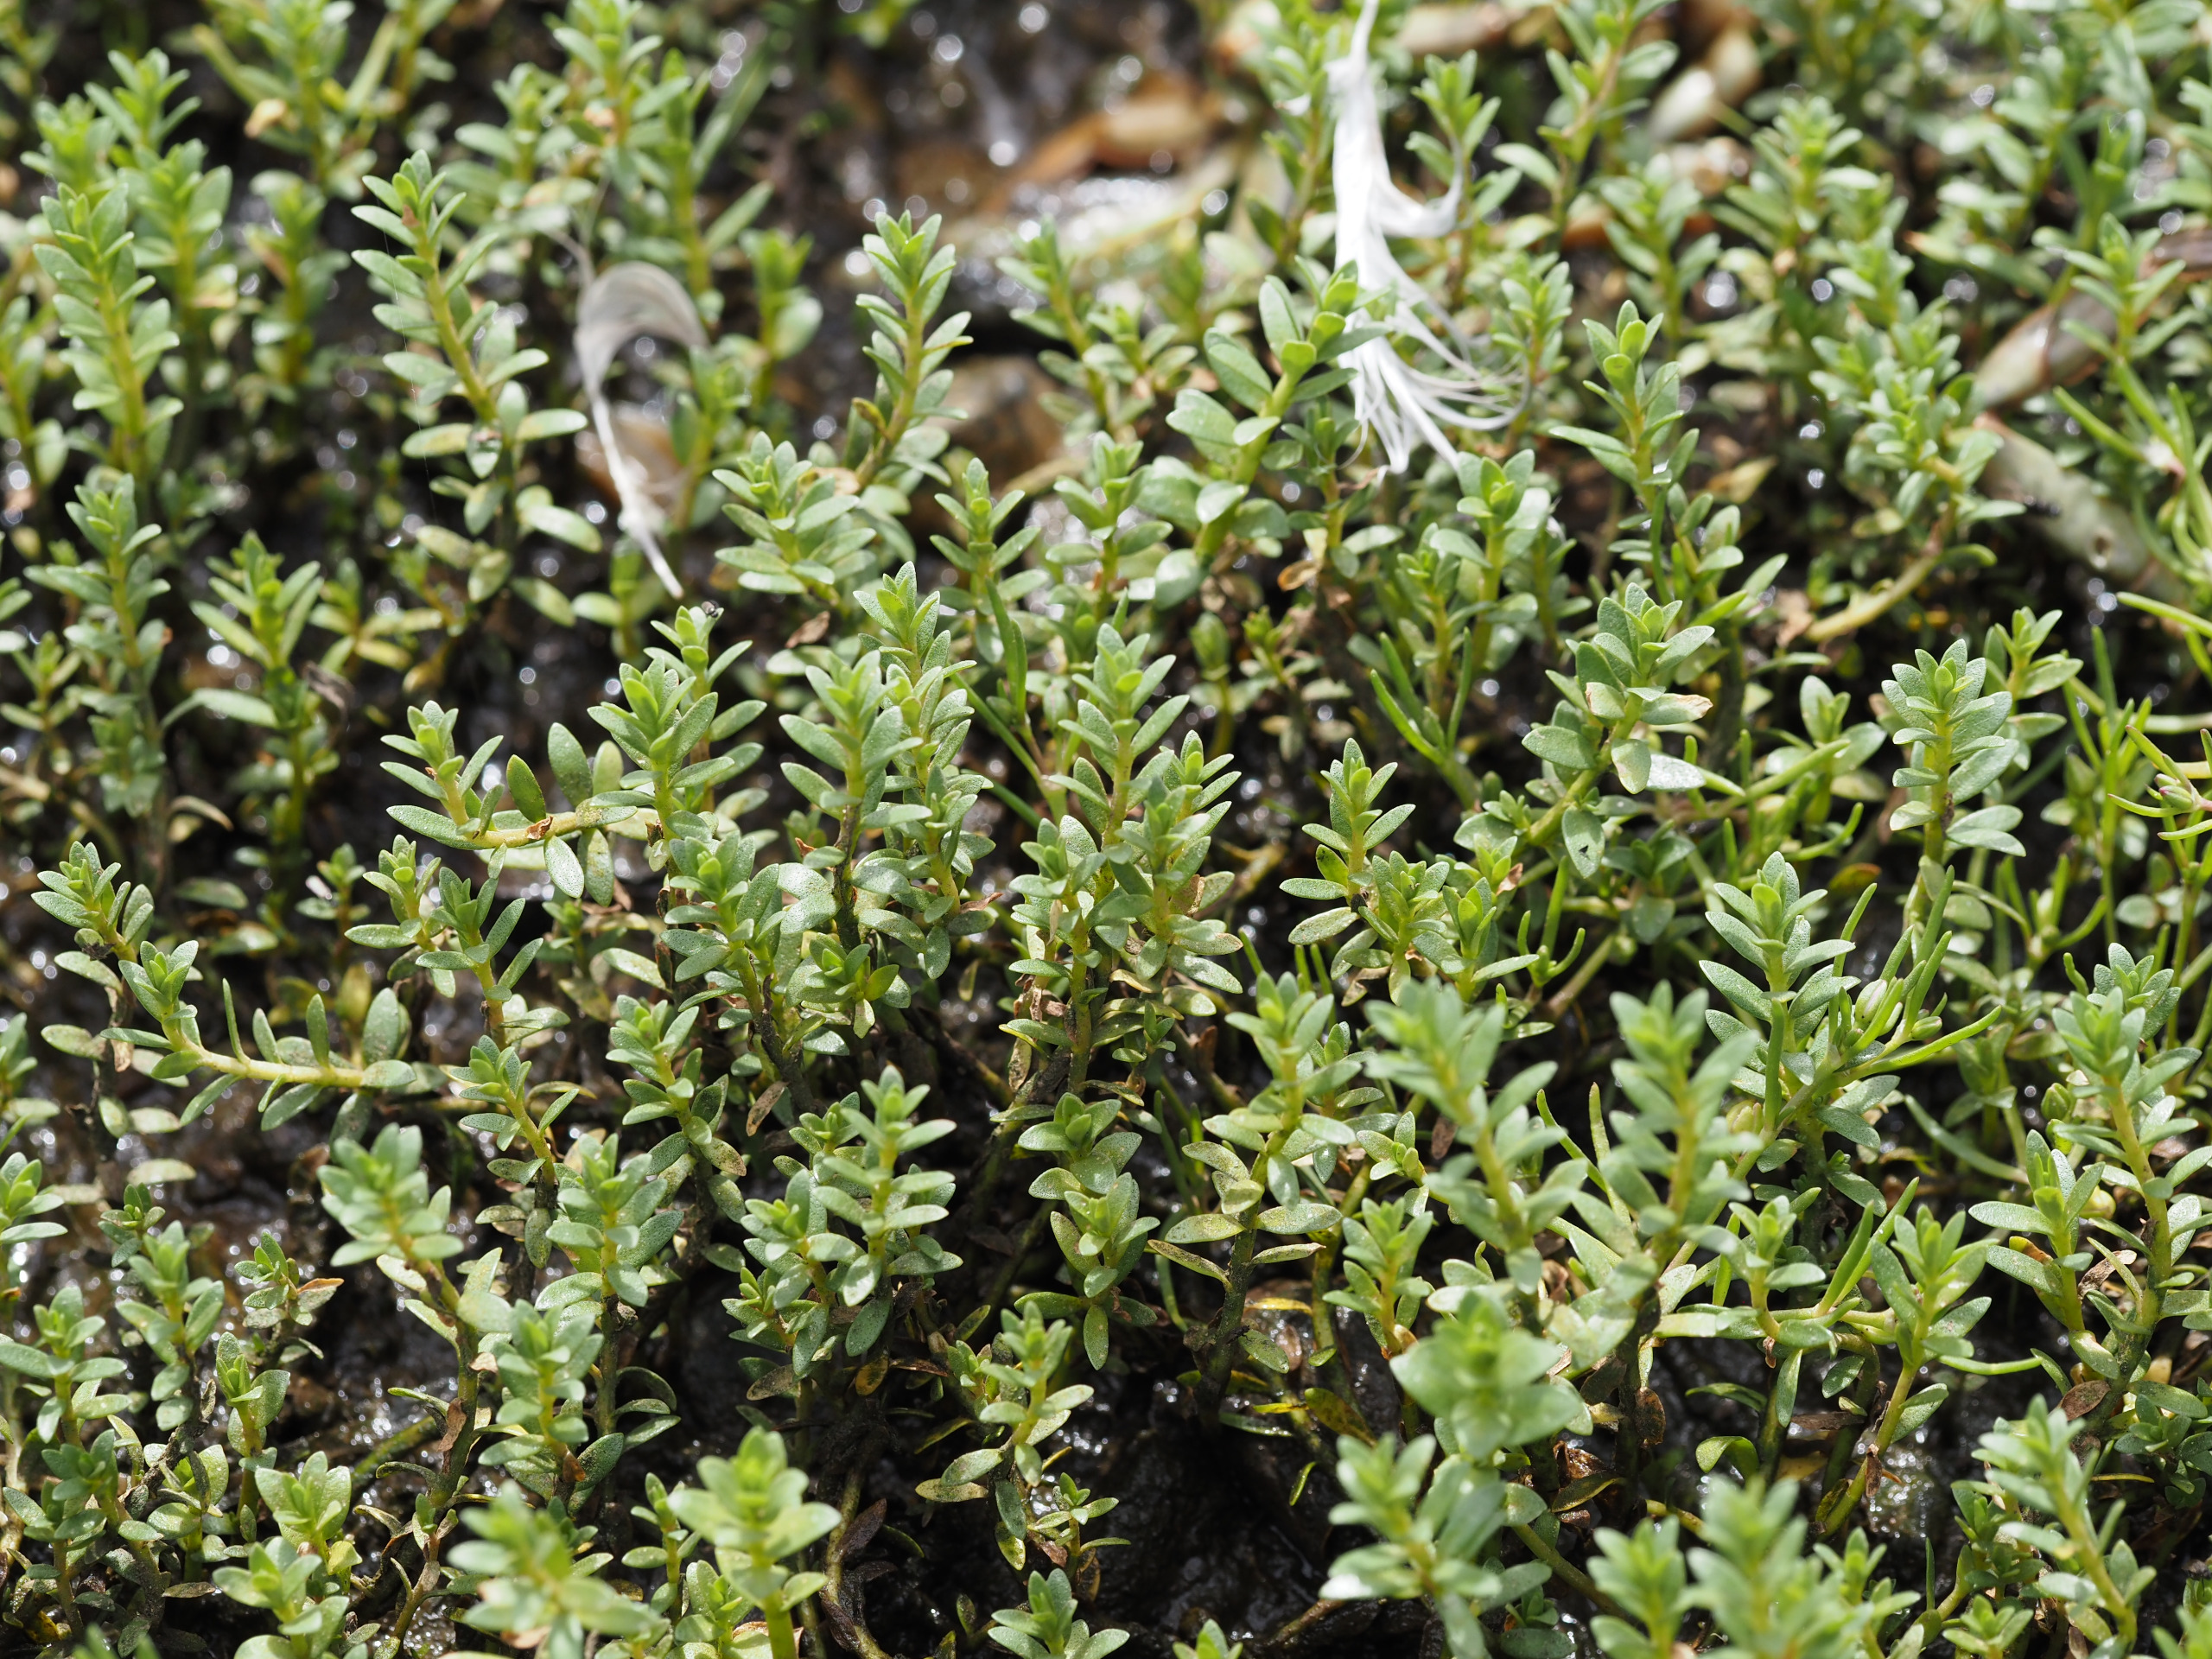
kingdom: Plantae
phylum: Tracheophyta
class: Magnoliopsida
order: Ericales
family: Primulaceae
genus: Lysimachia
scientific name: Lysimachia maritima
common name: Sandkryb
